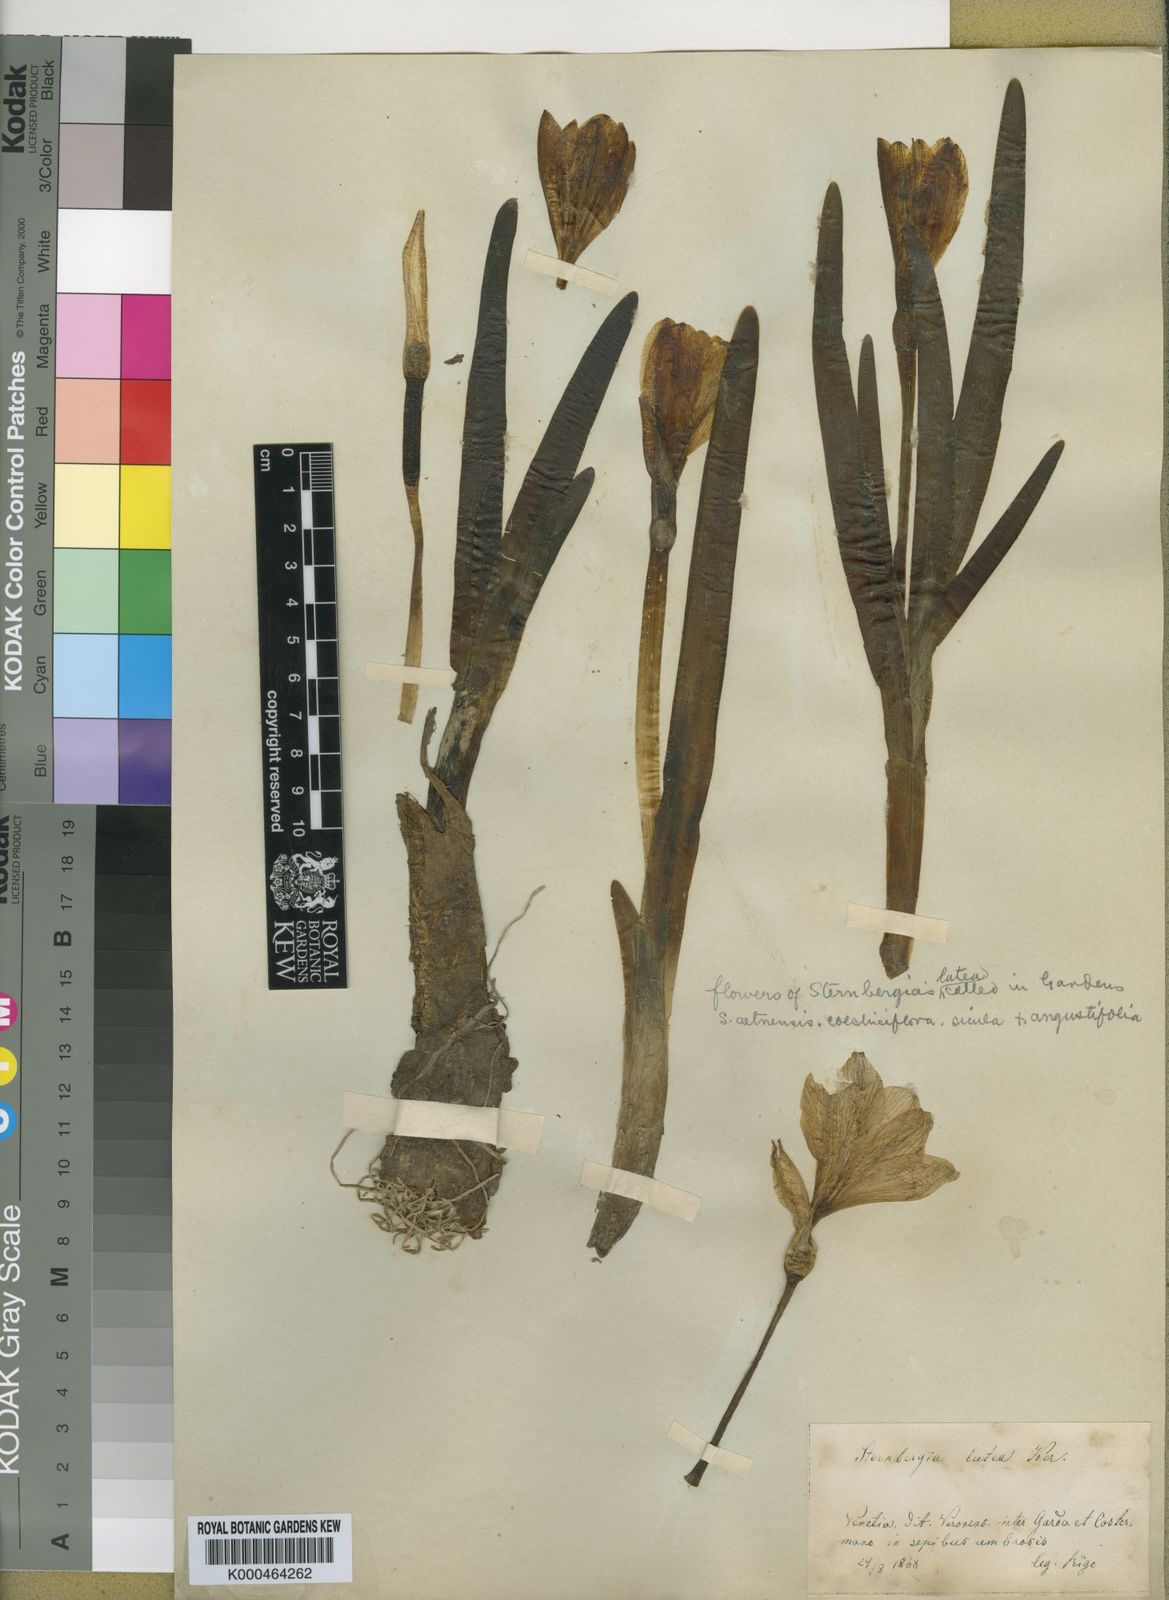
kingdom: Plantae
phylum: Tracheophyta
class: Liliopsida
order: Asparagales
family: Amaryllidaceae
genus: Sternbergia
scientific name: Sternbergia
